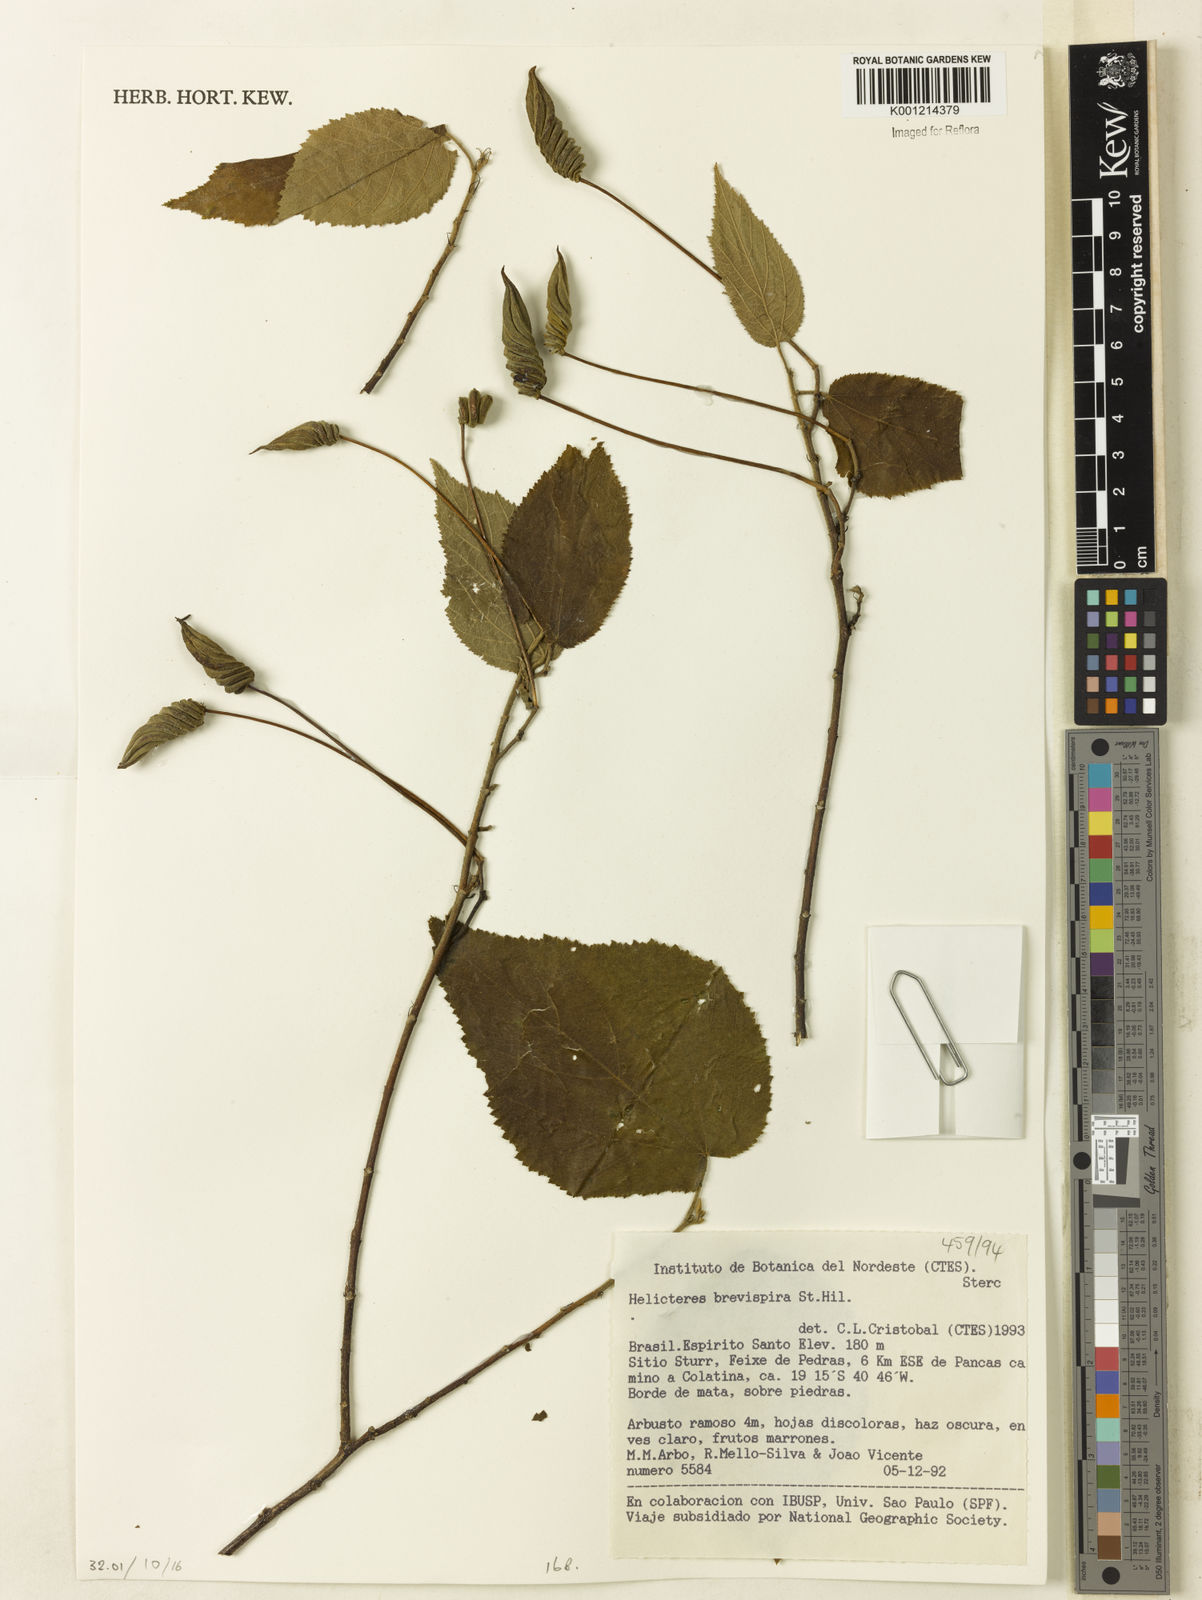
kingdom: Plantae
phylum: Tracheophyta
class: Magnoliopsida
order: Malvales
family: Malvaceae
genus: Helicteres
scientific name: Helicteres
